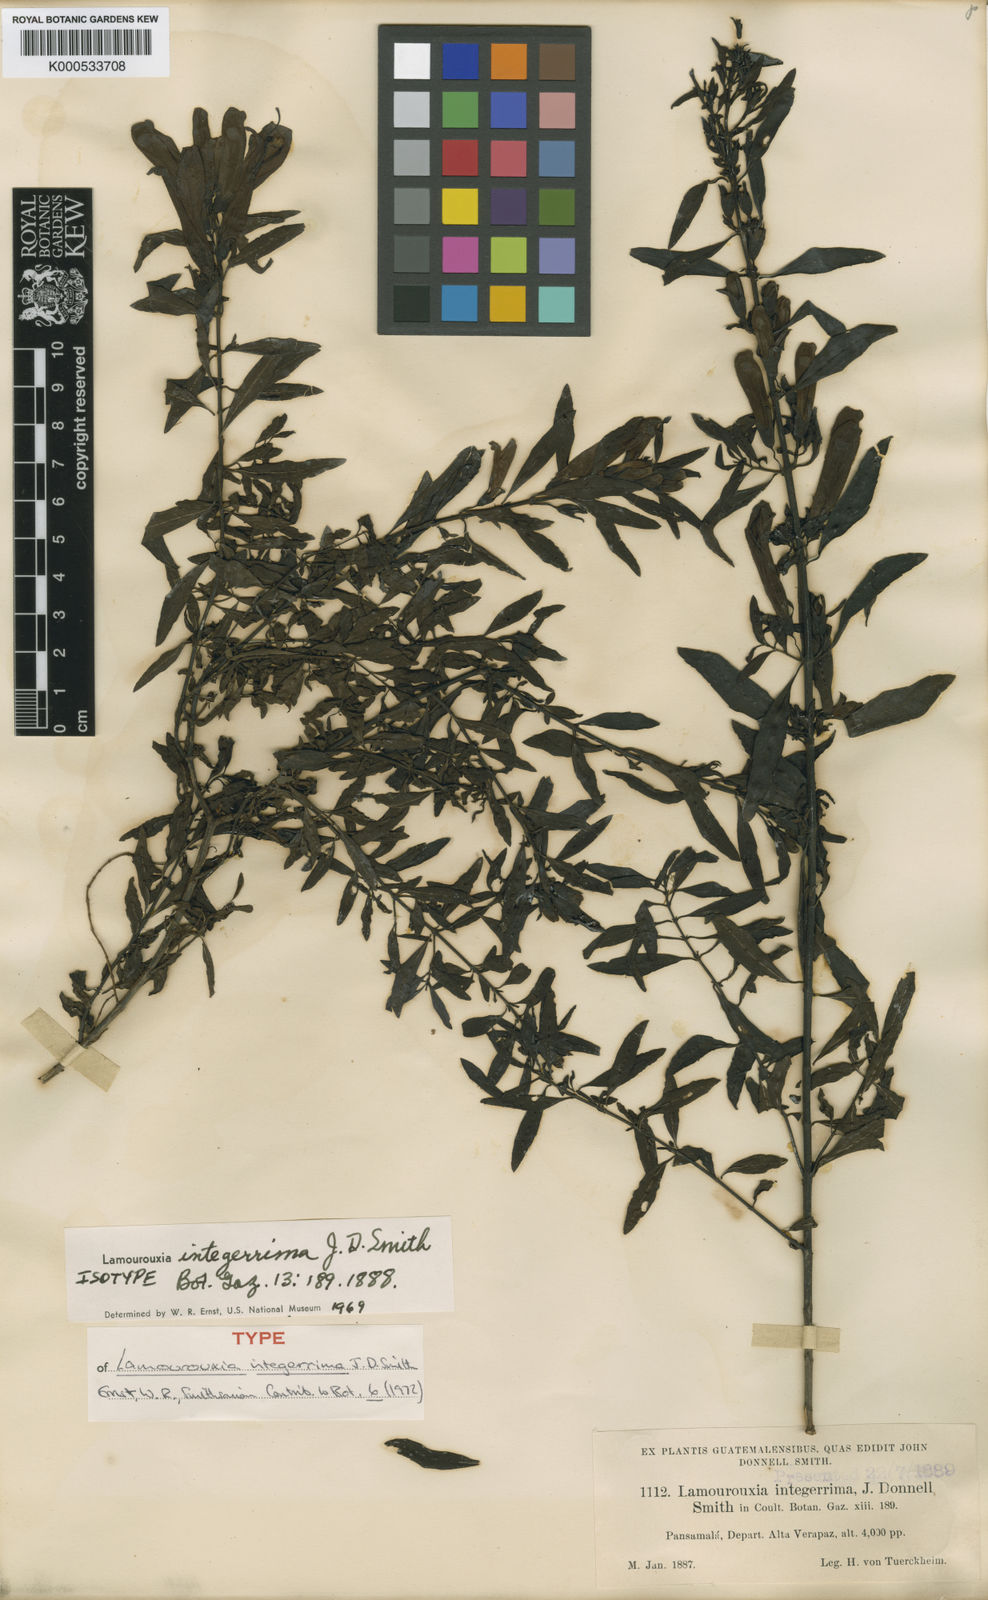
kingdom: Plantae
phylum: Tracheophyta
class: Magnoliopsida
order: Lamiales
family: Orobanchaceae
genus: Lamourouxia
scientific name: Lamourouxia longiflora
